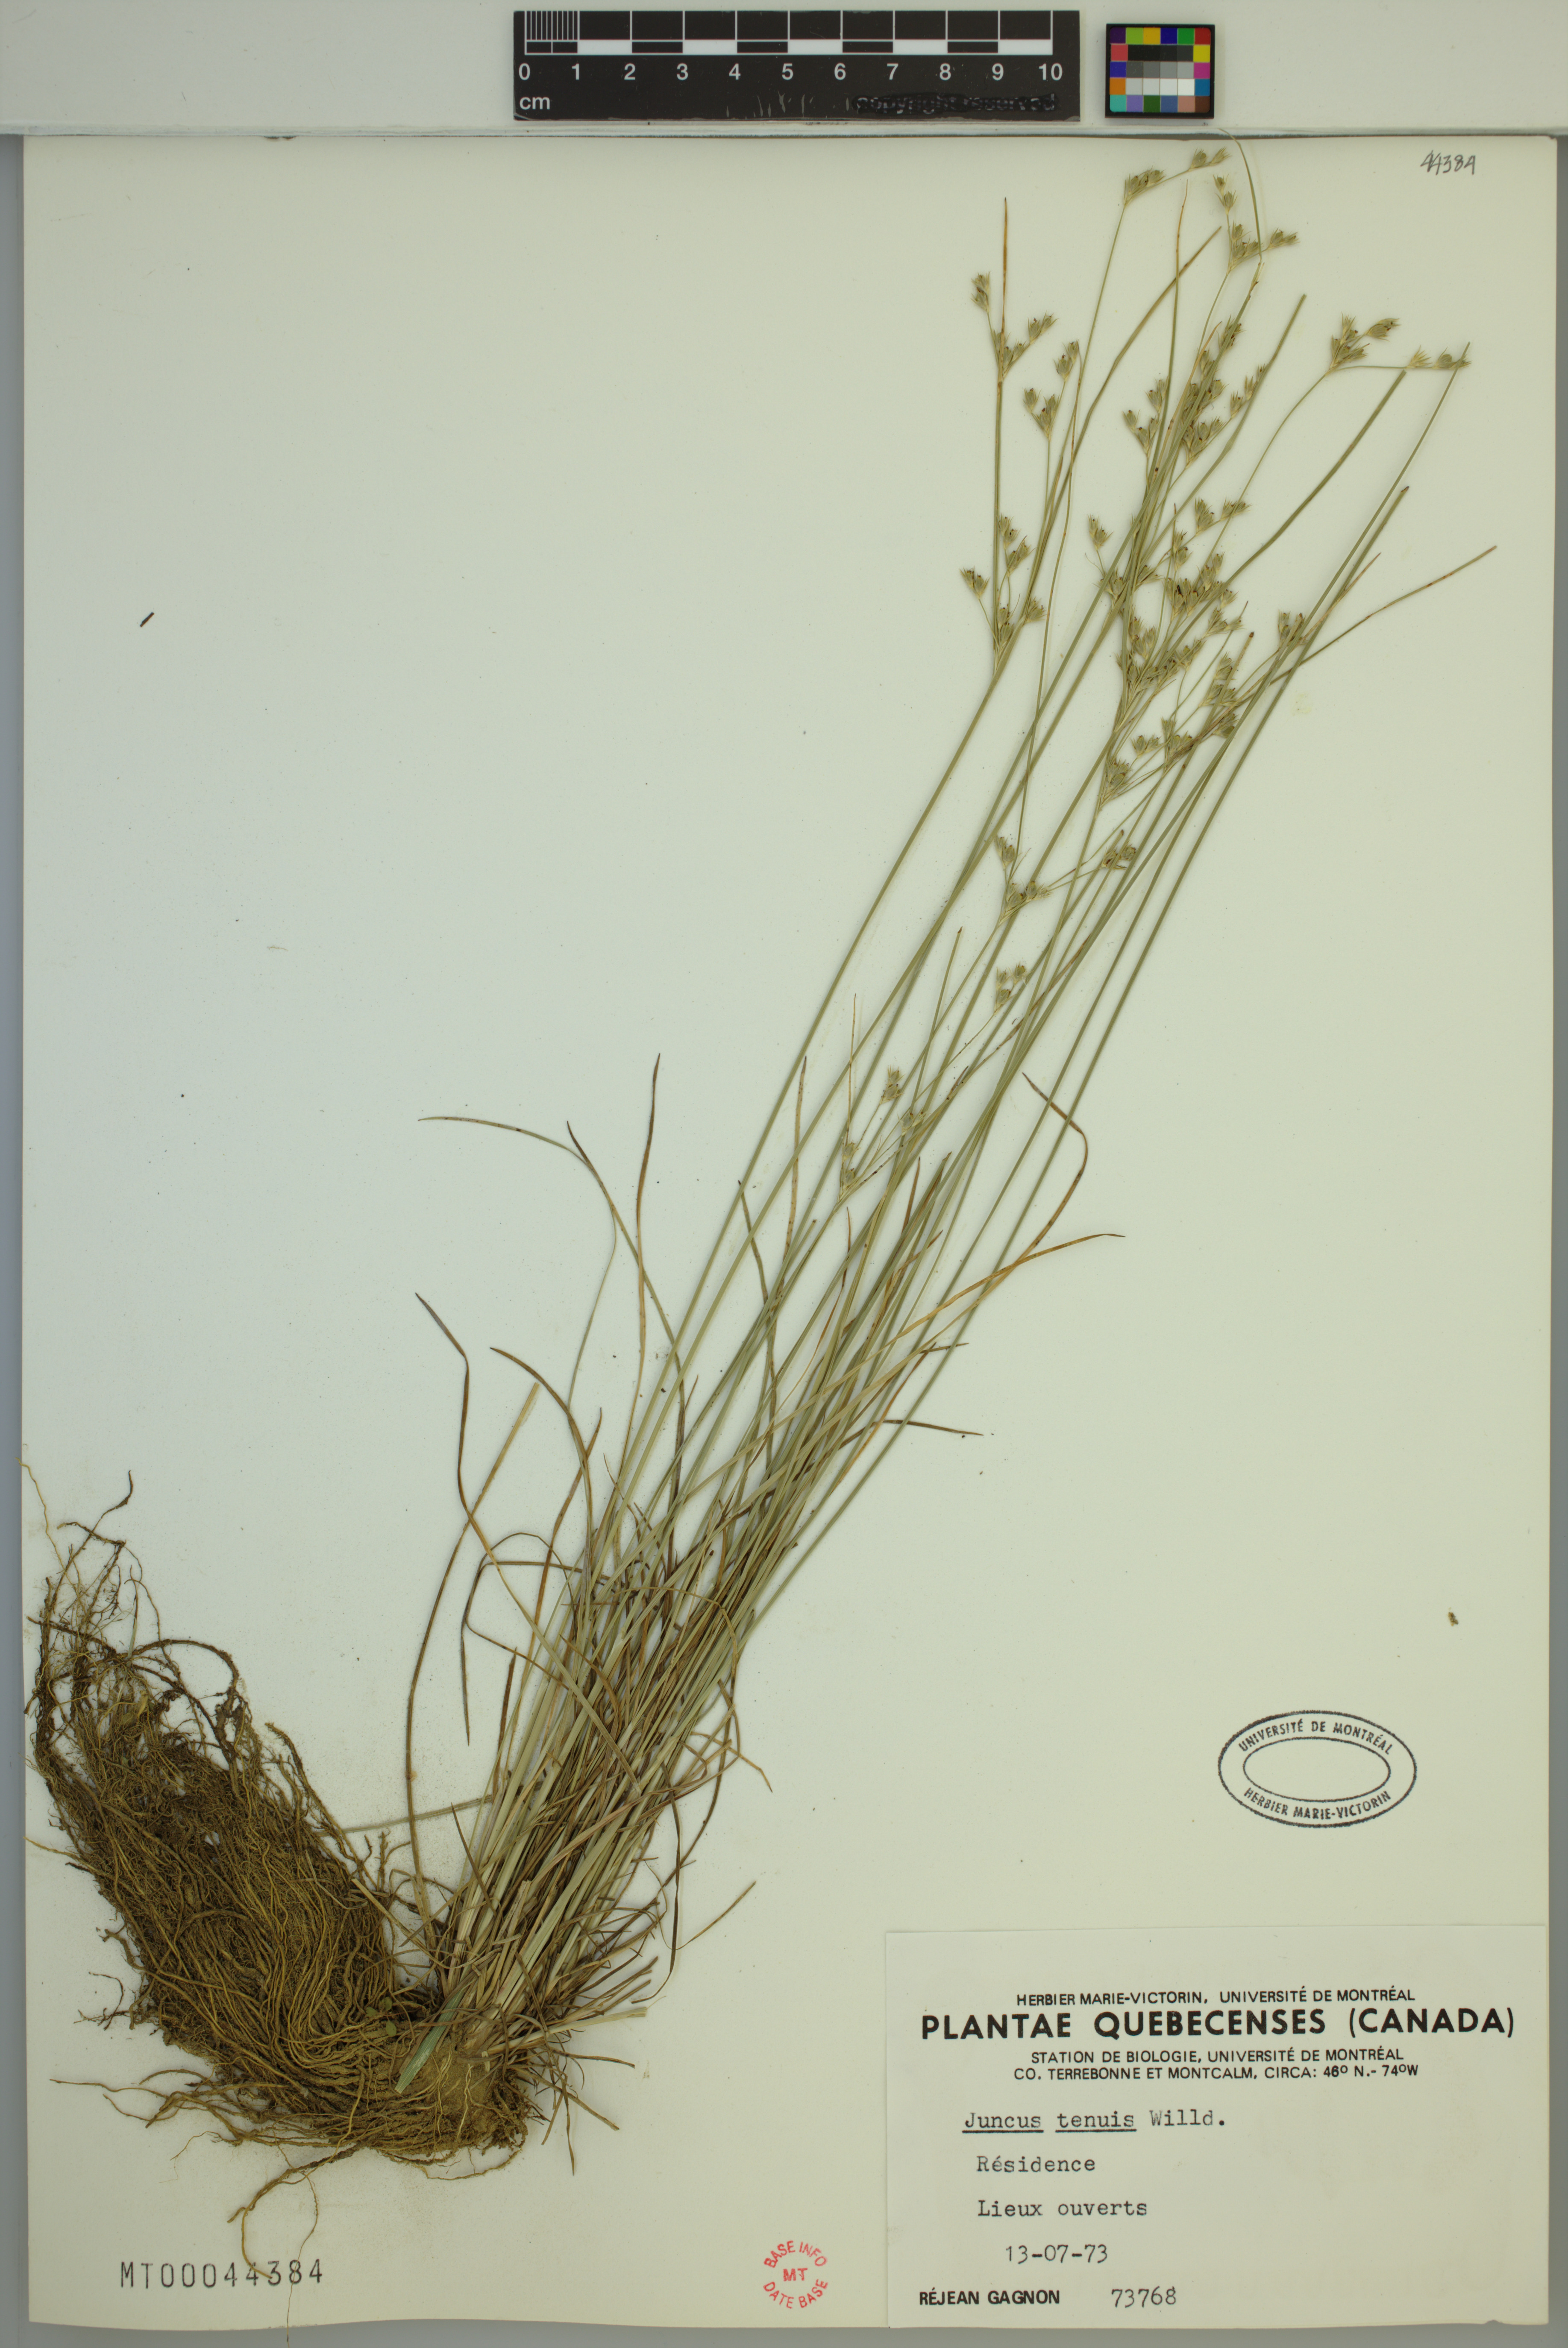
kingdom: Plantae
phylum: Tracheophyta
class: Liliopsida
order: Poales
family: Juncaceae
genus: Juncus
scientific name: Juncus tenuis
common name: Slender rush
